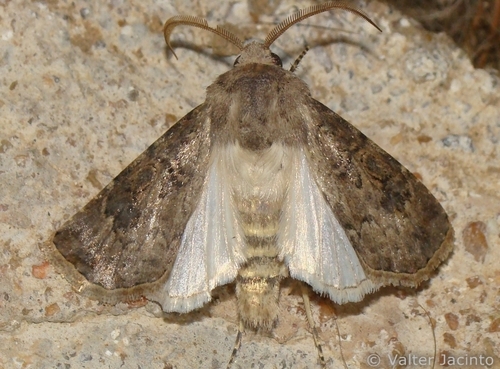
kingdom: Animalia
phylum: Arthropoda
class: Insecta
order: Lepidoptera
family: Noctuidae
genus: Agrotis
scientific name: Agrotis bigramma
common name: Great dart
